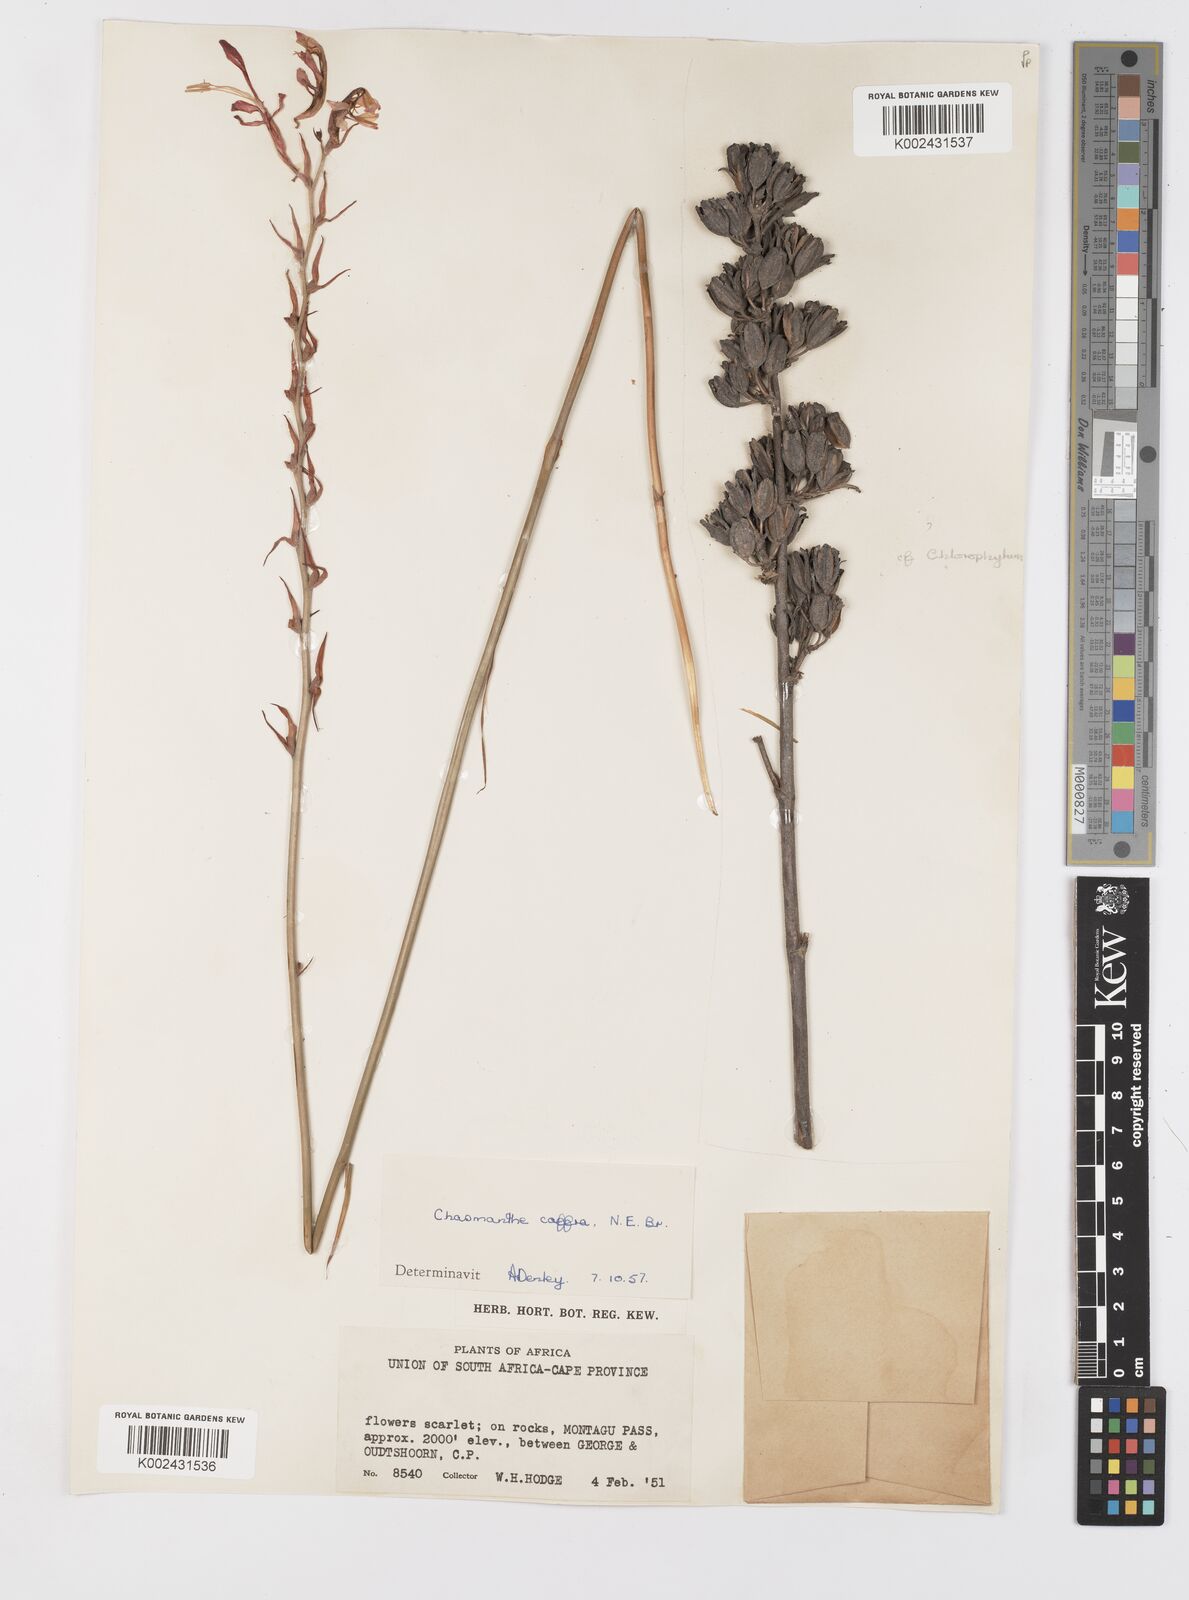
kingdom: Plantae
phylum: Tracheophyta
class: Liliopsida
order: Asparagales
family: Iridaceae
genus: Tritoniopsis
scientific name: Tritoniopsis caffra
